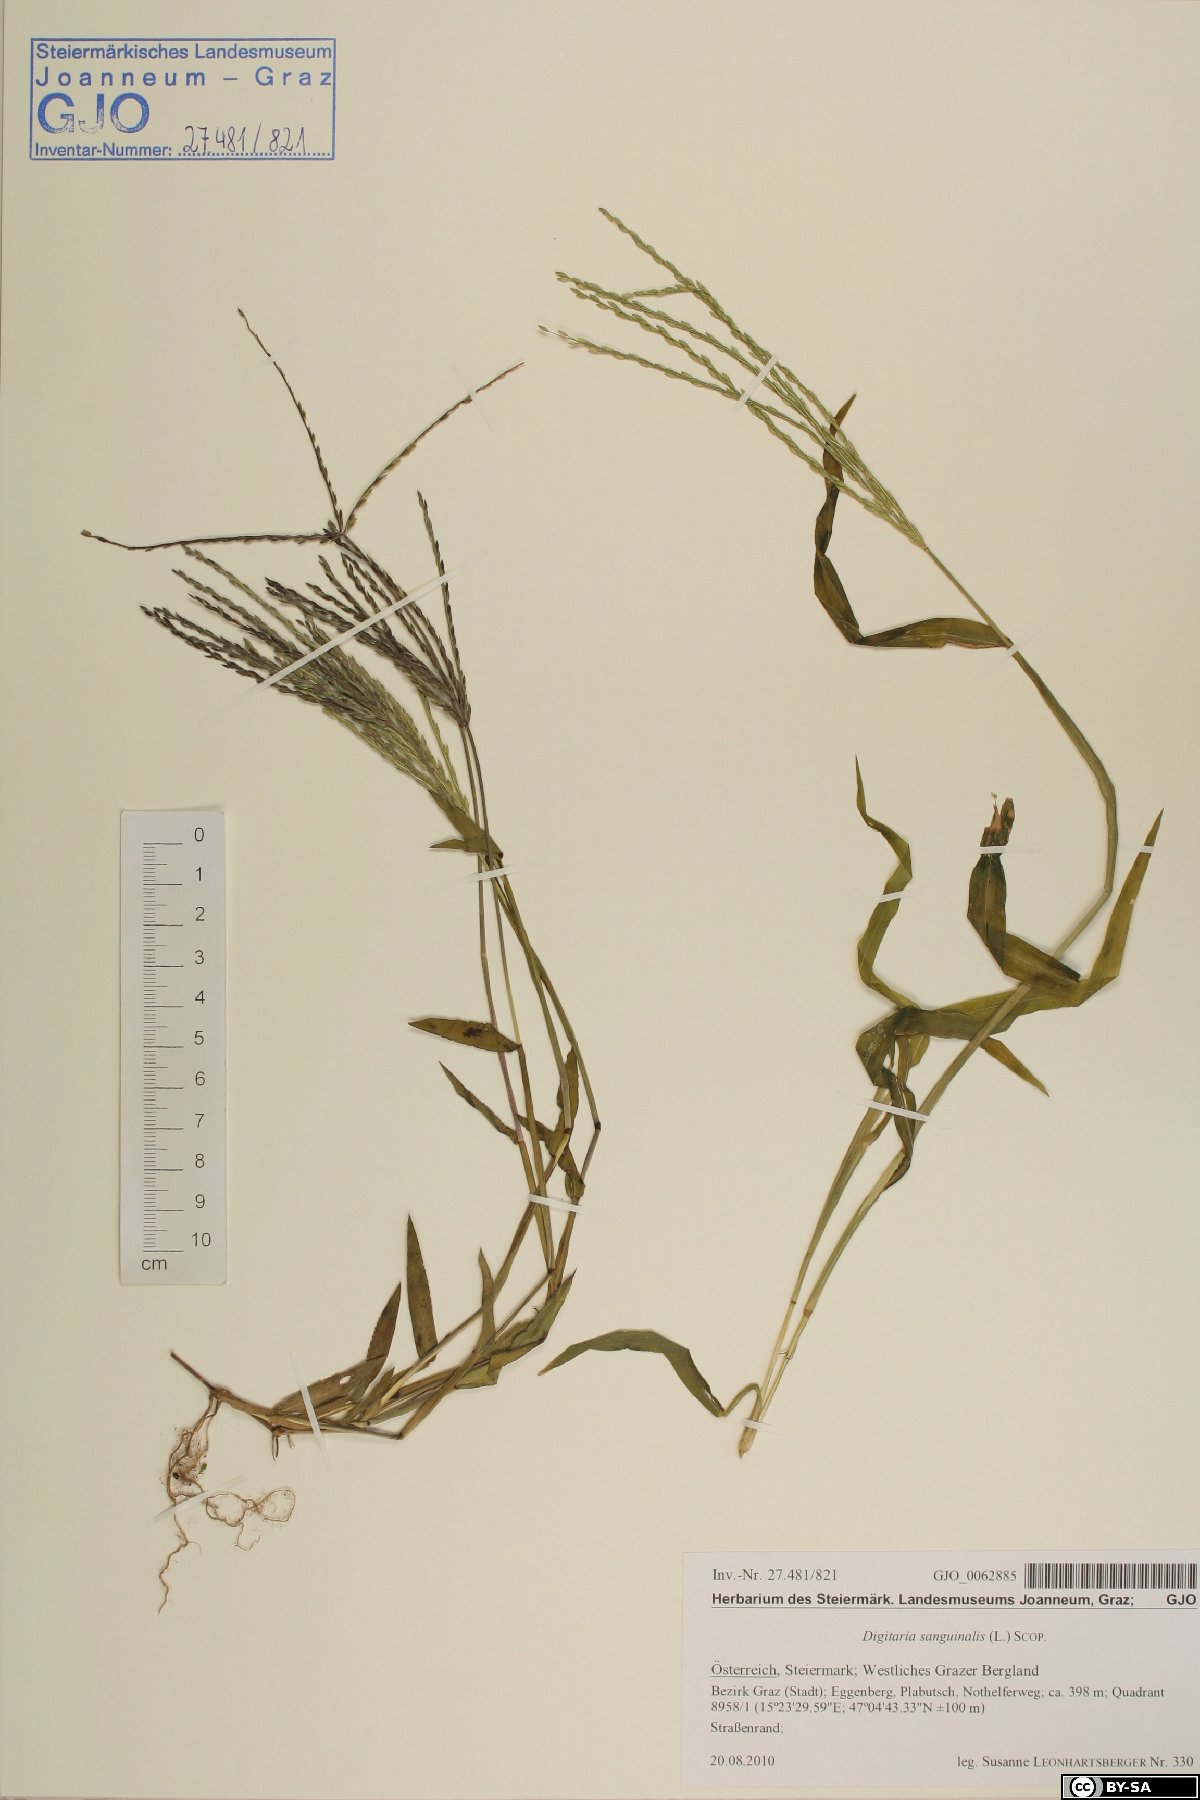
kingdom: Plantae
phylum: Tracheophyta
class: Liliopsida
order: Poales
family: Poaceae
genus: Digitaria
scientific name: Digitaria sanguinalis
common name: Hairy crabgrass
